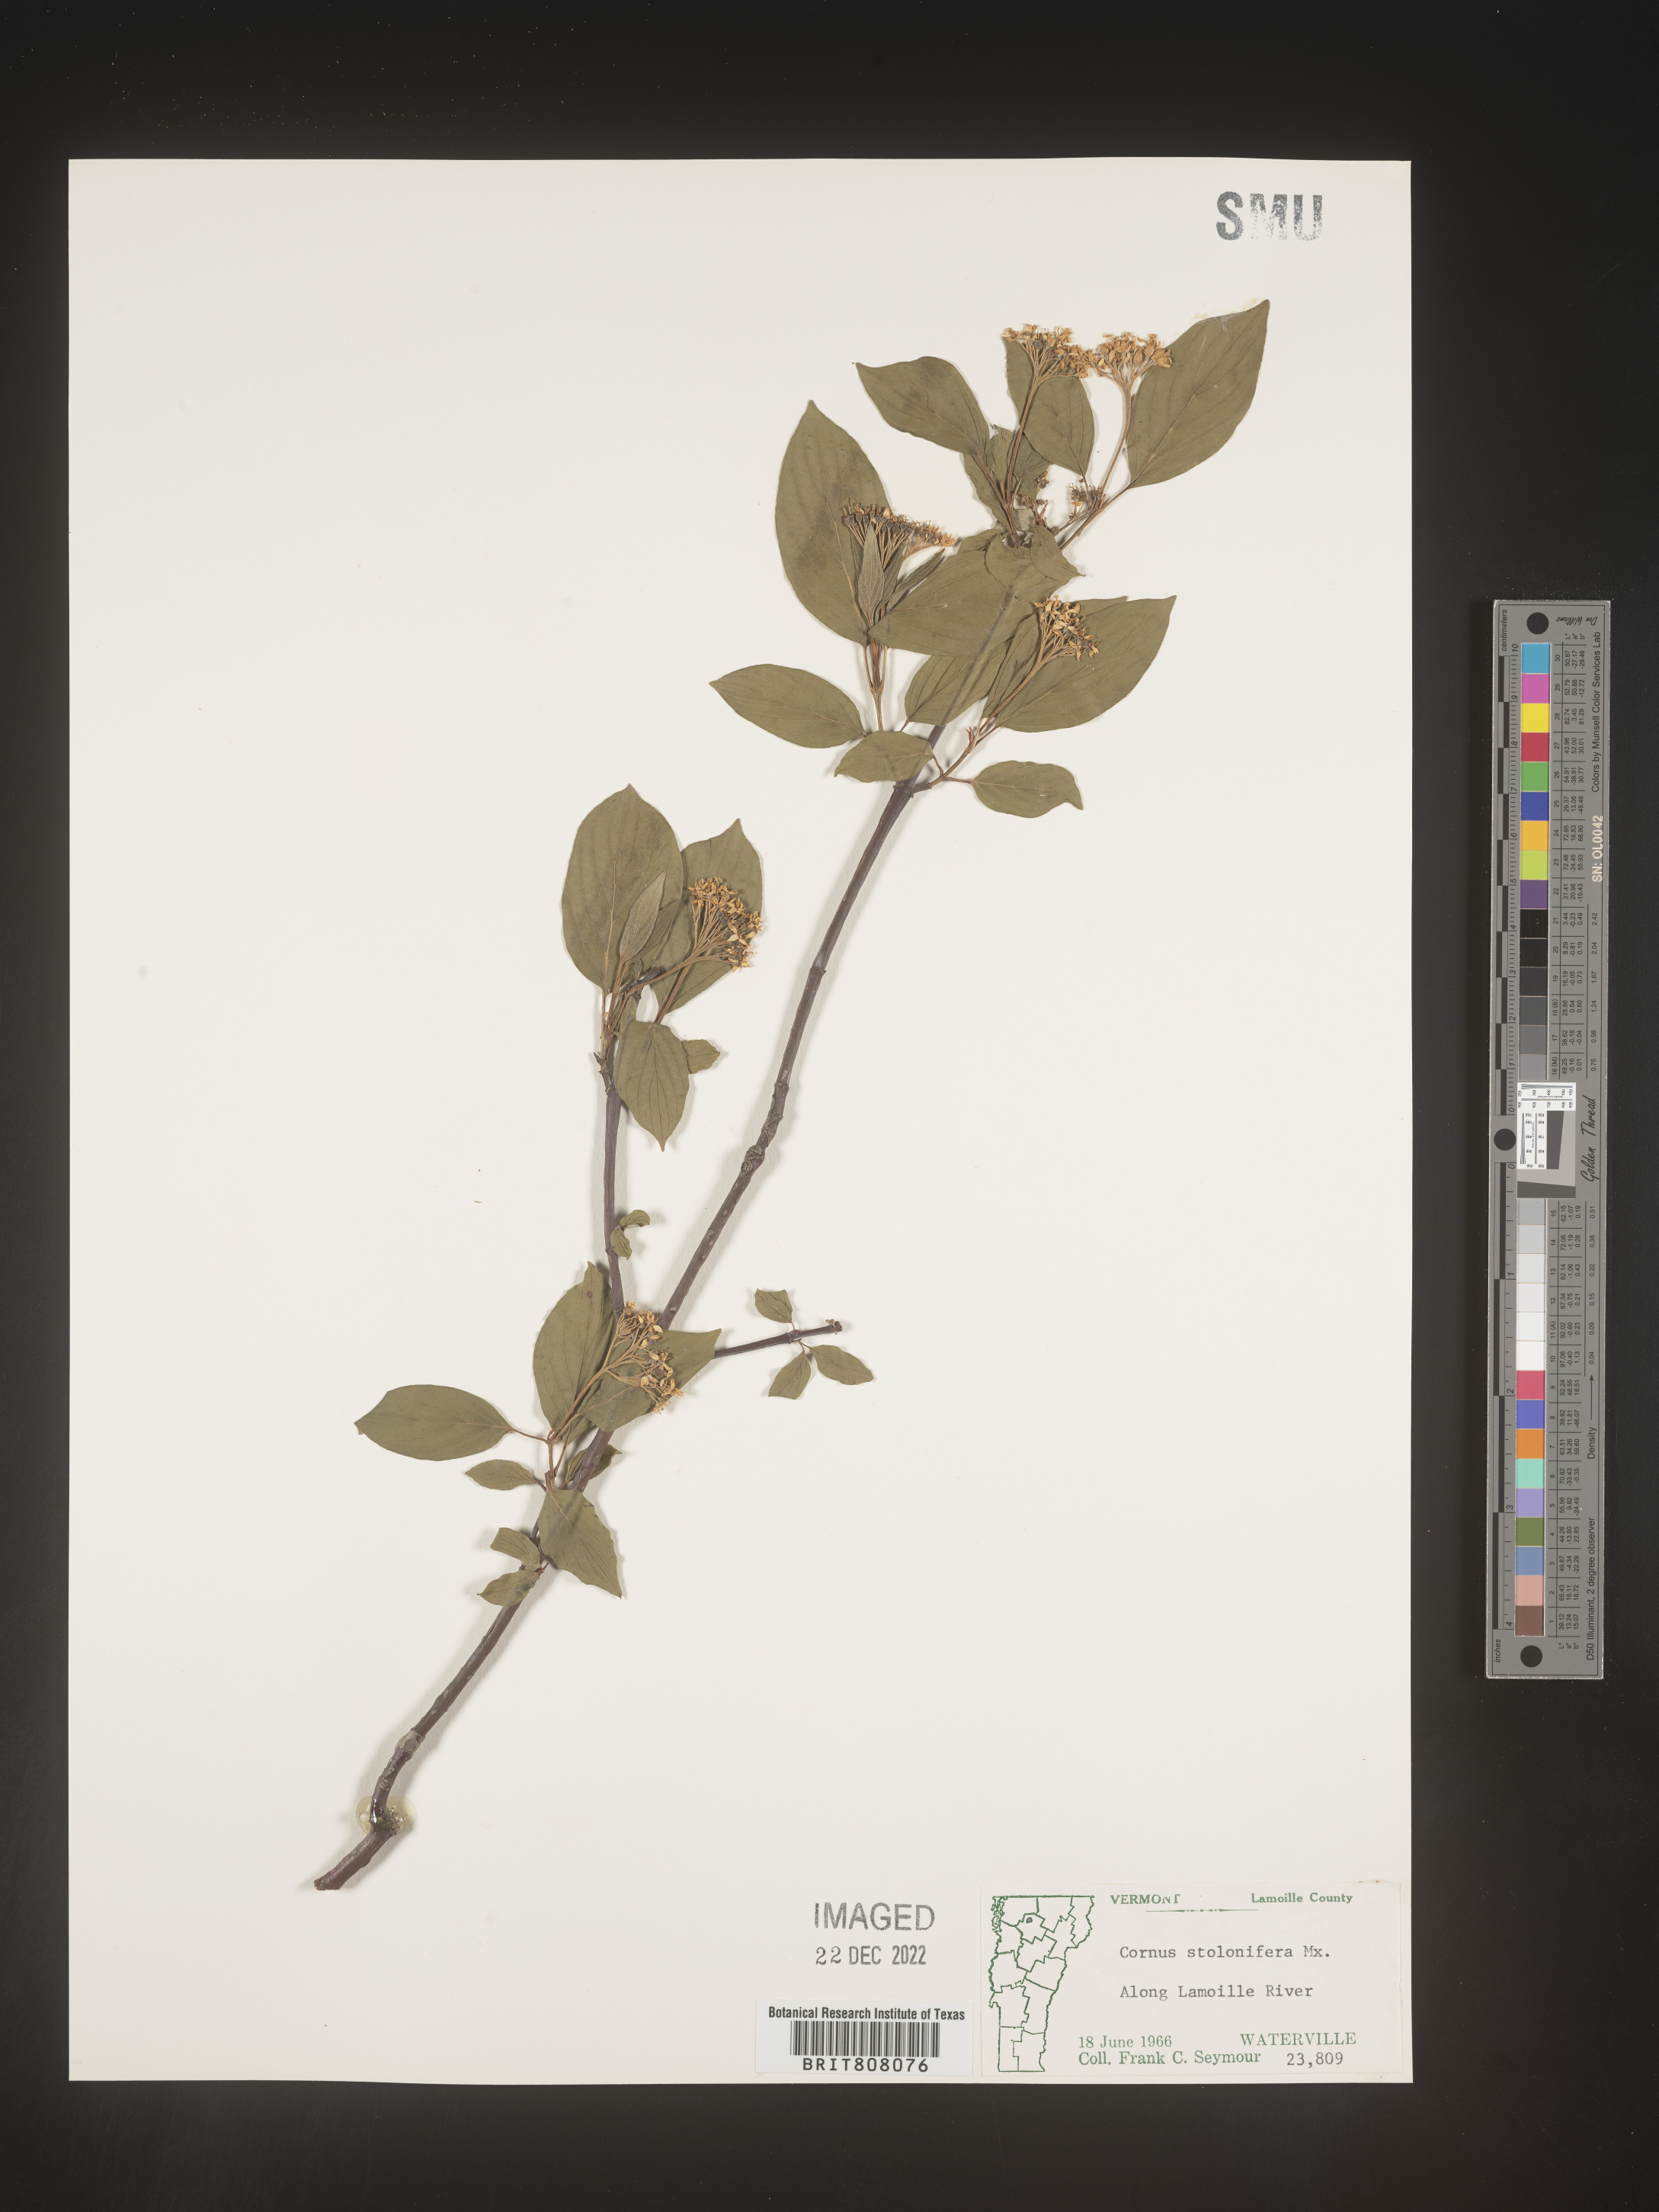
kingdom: Plantae
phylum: Tracheophyta
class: Magnoliopsida
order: Cornales
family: Cornaceae
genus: Cornus
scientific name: Cornus sericea
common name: Red-osier dogwood
